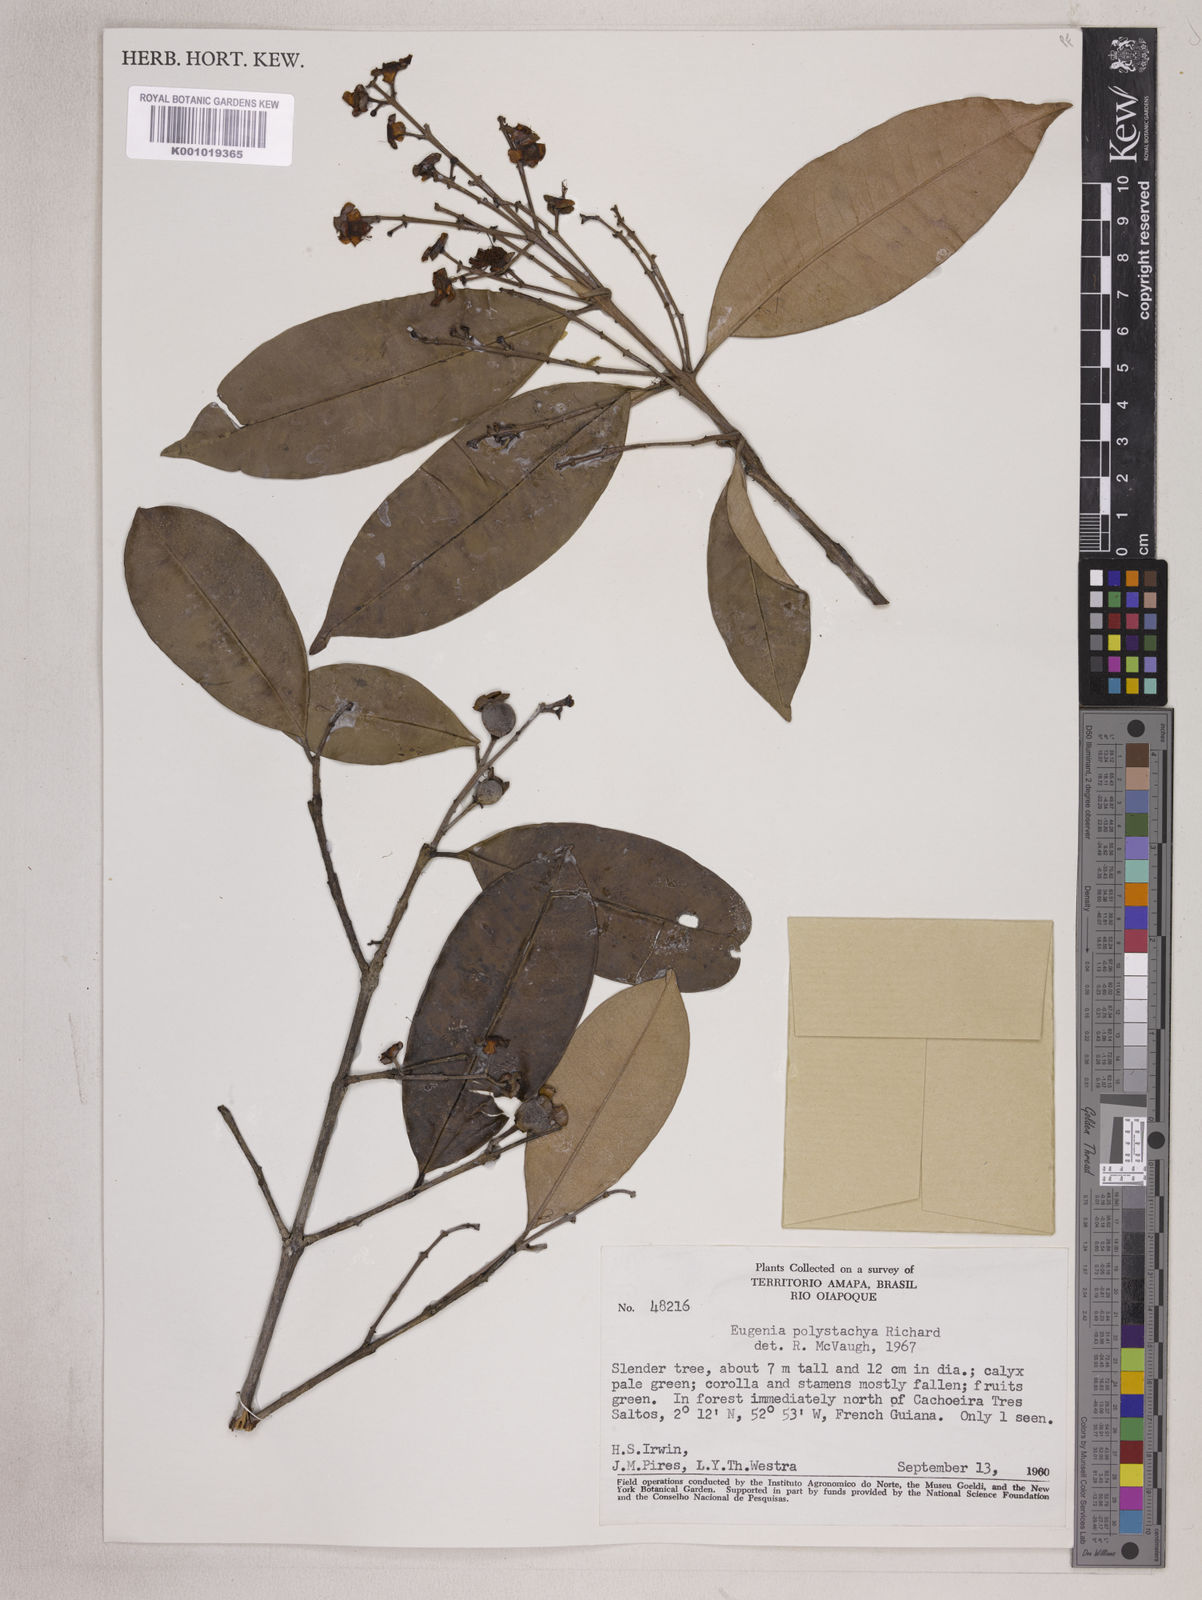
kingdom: Plantae
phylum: Tracheophyta
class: Magnoliopsida
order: Myrtales
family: Myrtaceae
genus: Eugenia
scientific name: Eugenia polystachya
